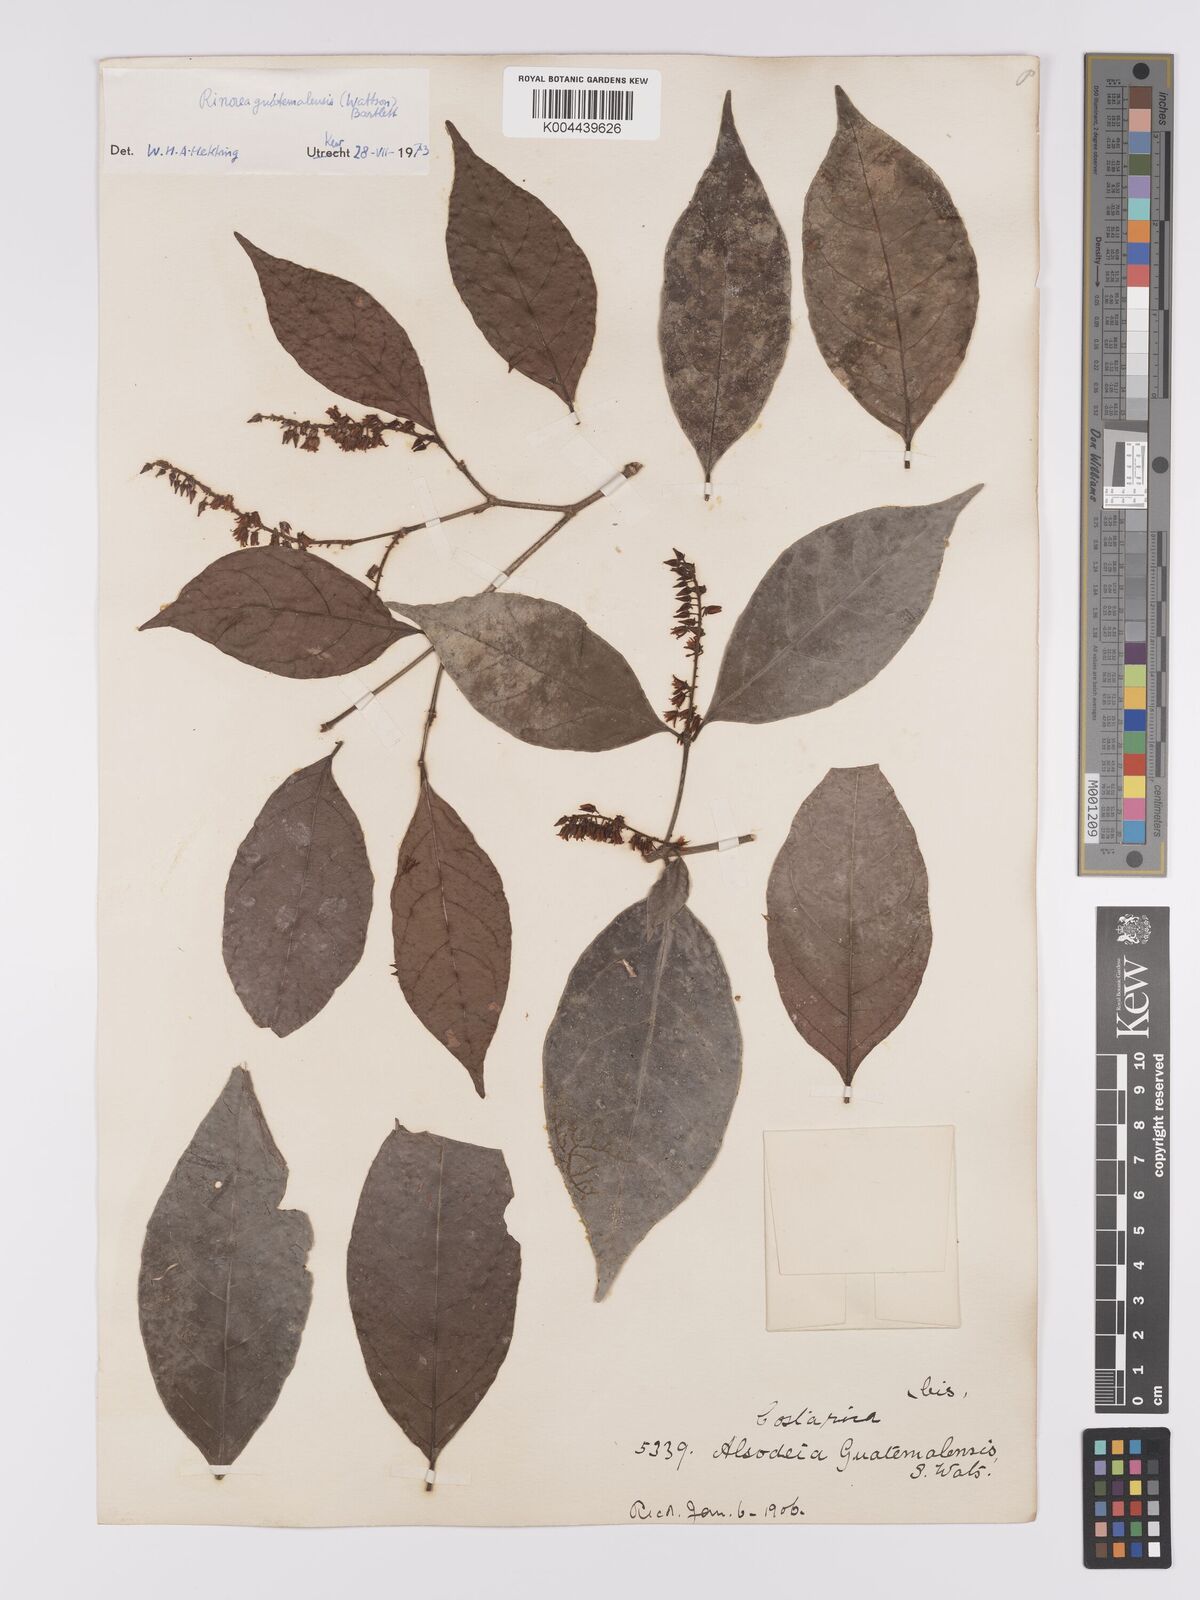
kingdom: Plantae
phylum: Tracheophyta
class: Magnoliopsida
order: Malpighiales
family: Violaceae
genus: Rinorea
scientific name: Rinorea guatemalensis
